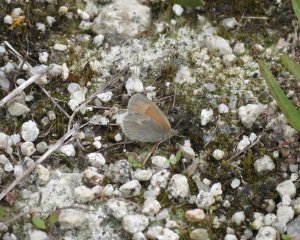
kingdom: Animalia
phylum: Arthropoda
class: Insecta
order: Lepidoptera
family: Nymphalidae
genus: Coenonympha
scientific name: Coenonympha tullia
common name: Large Heath
